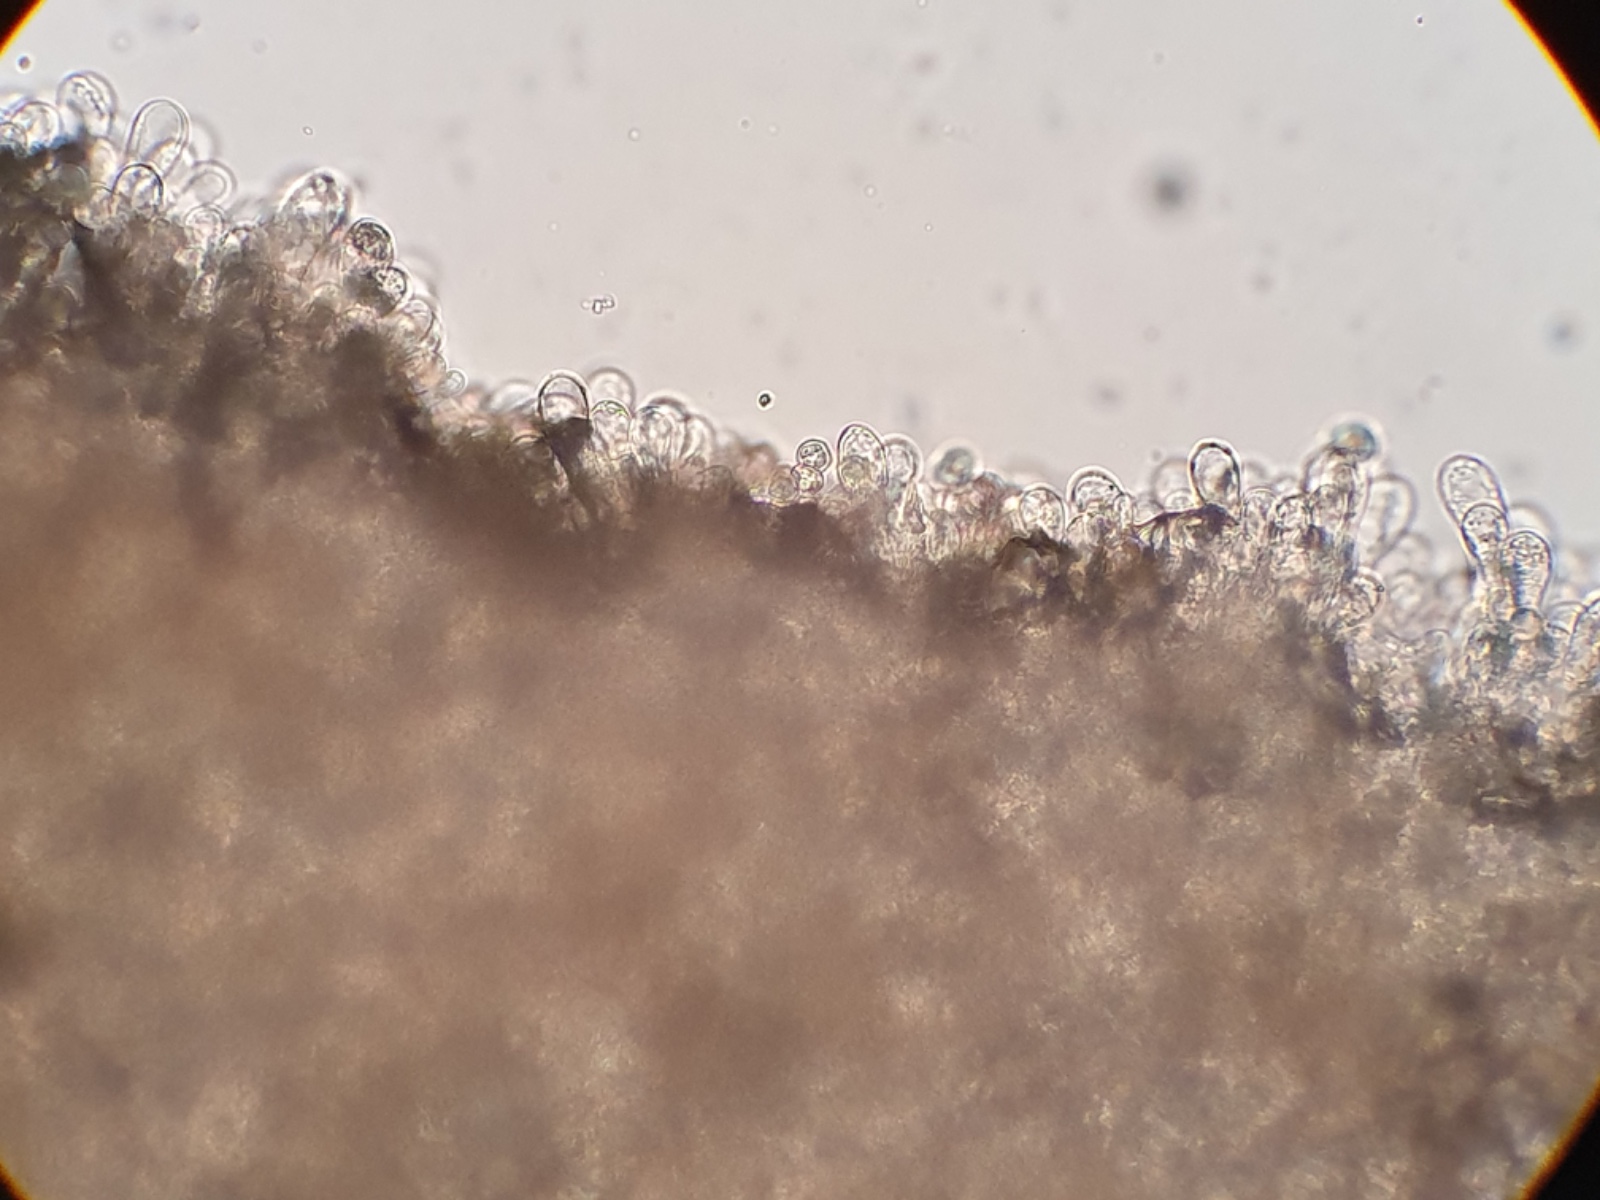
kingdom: Fungi
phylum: Basidiomycota
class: Agaricomycetes
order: Agaricales
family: Entolomataceae
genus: Entoloma
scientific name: Entoloma
